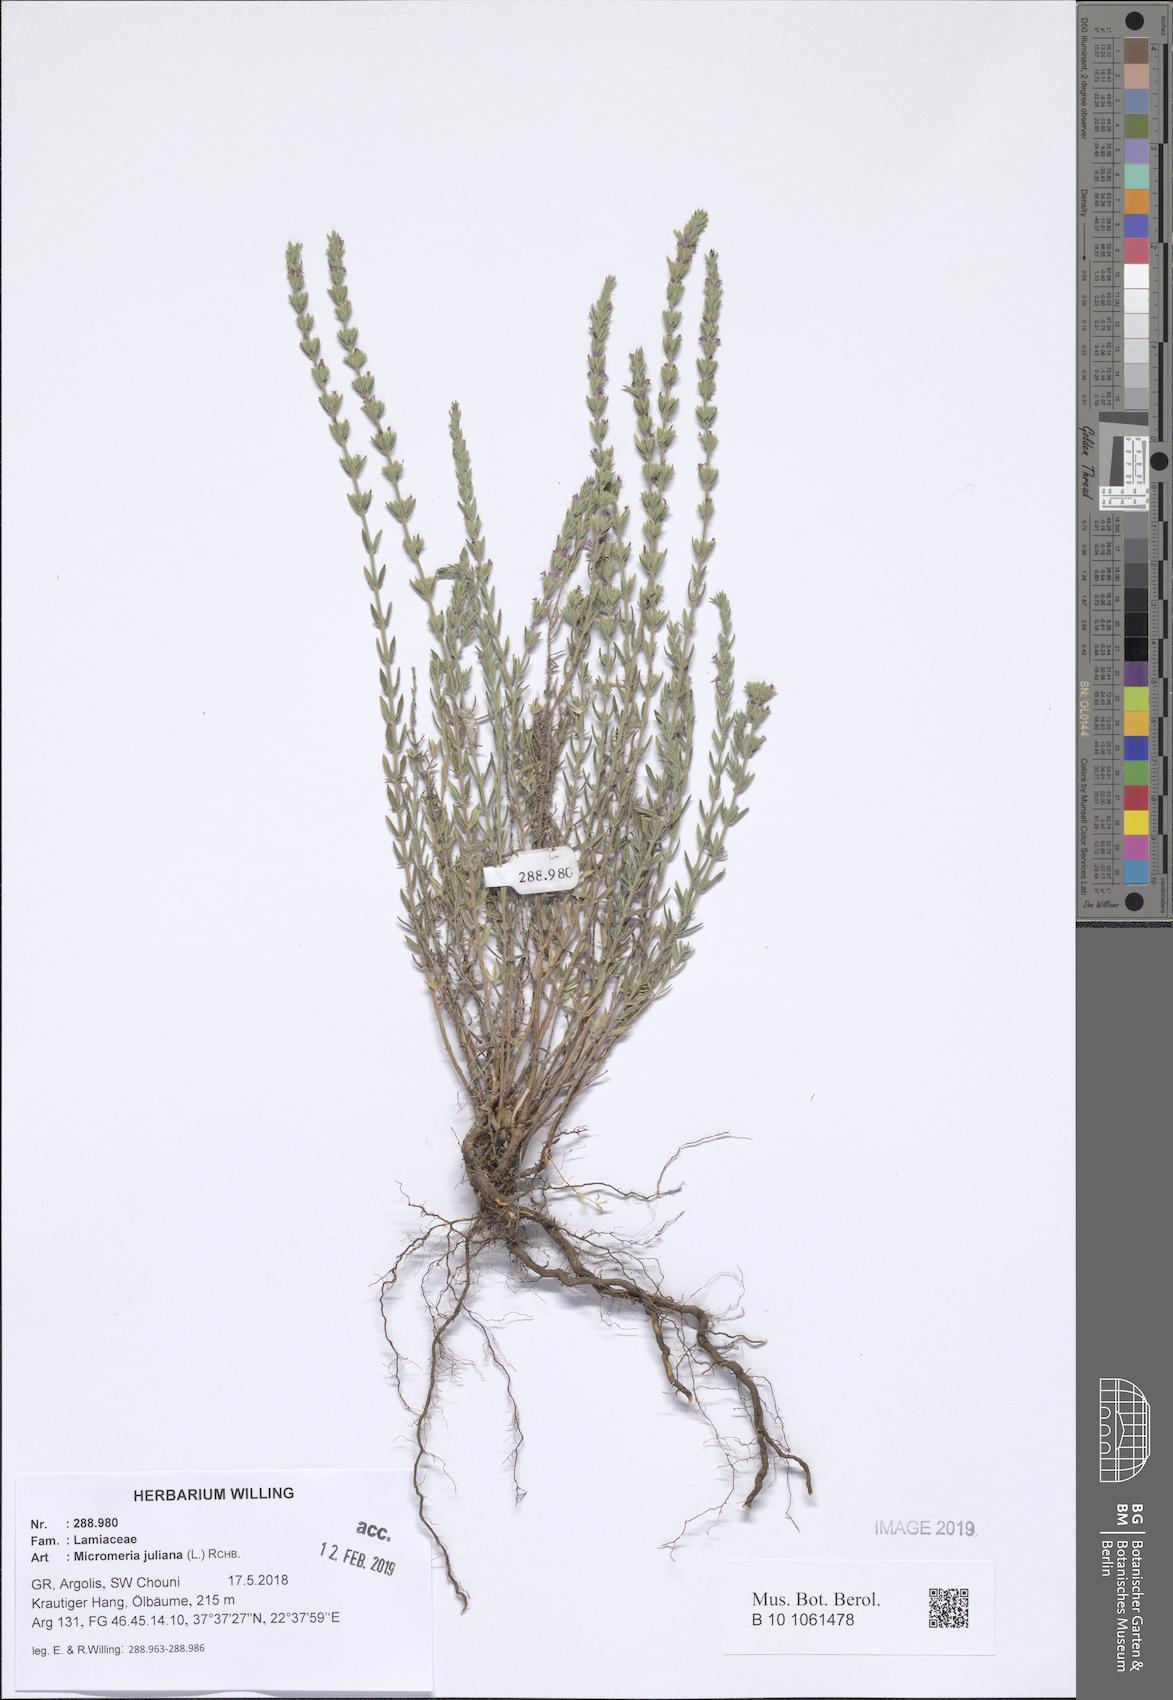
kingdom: Plantae
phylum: Tracheophyta
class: Magnoliopsida
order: Lamiales
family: Lamiaceae
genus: Micromeria
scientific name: Micromeria juliana
